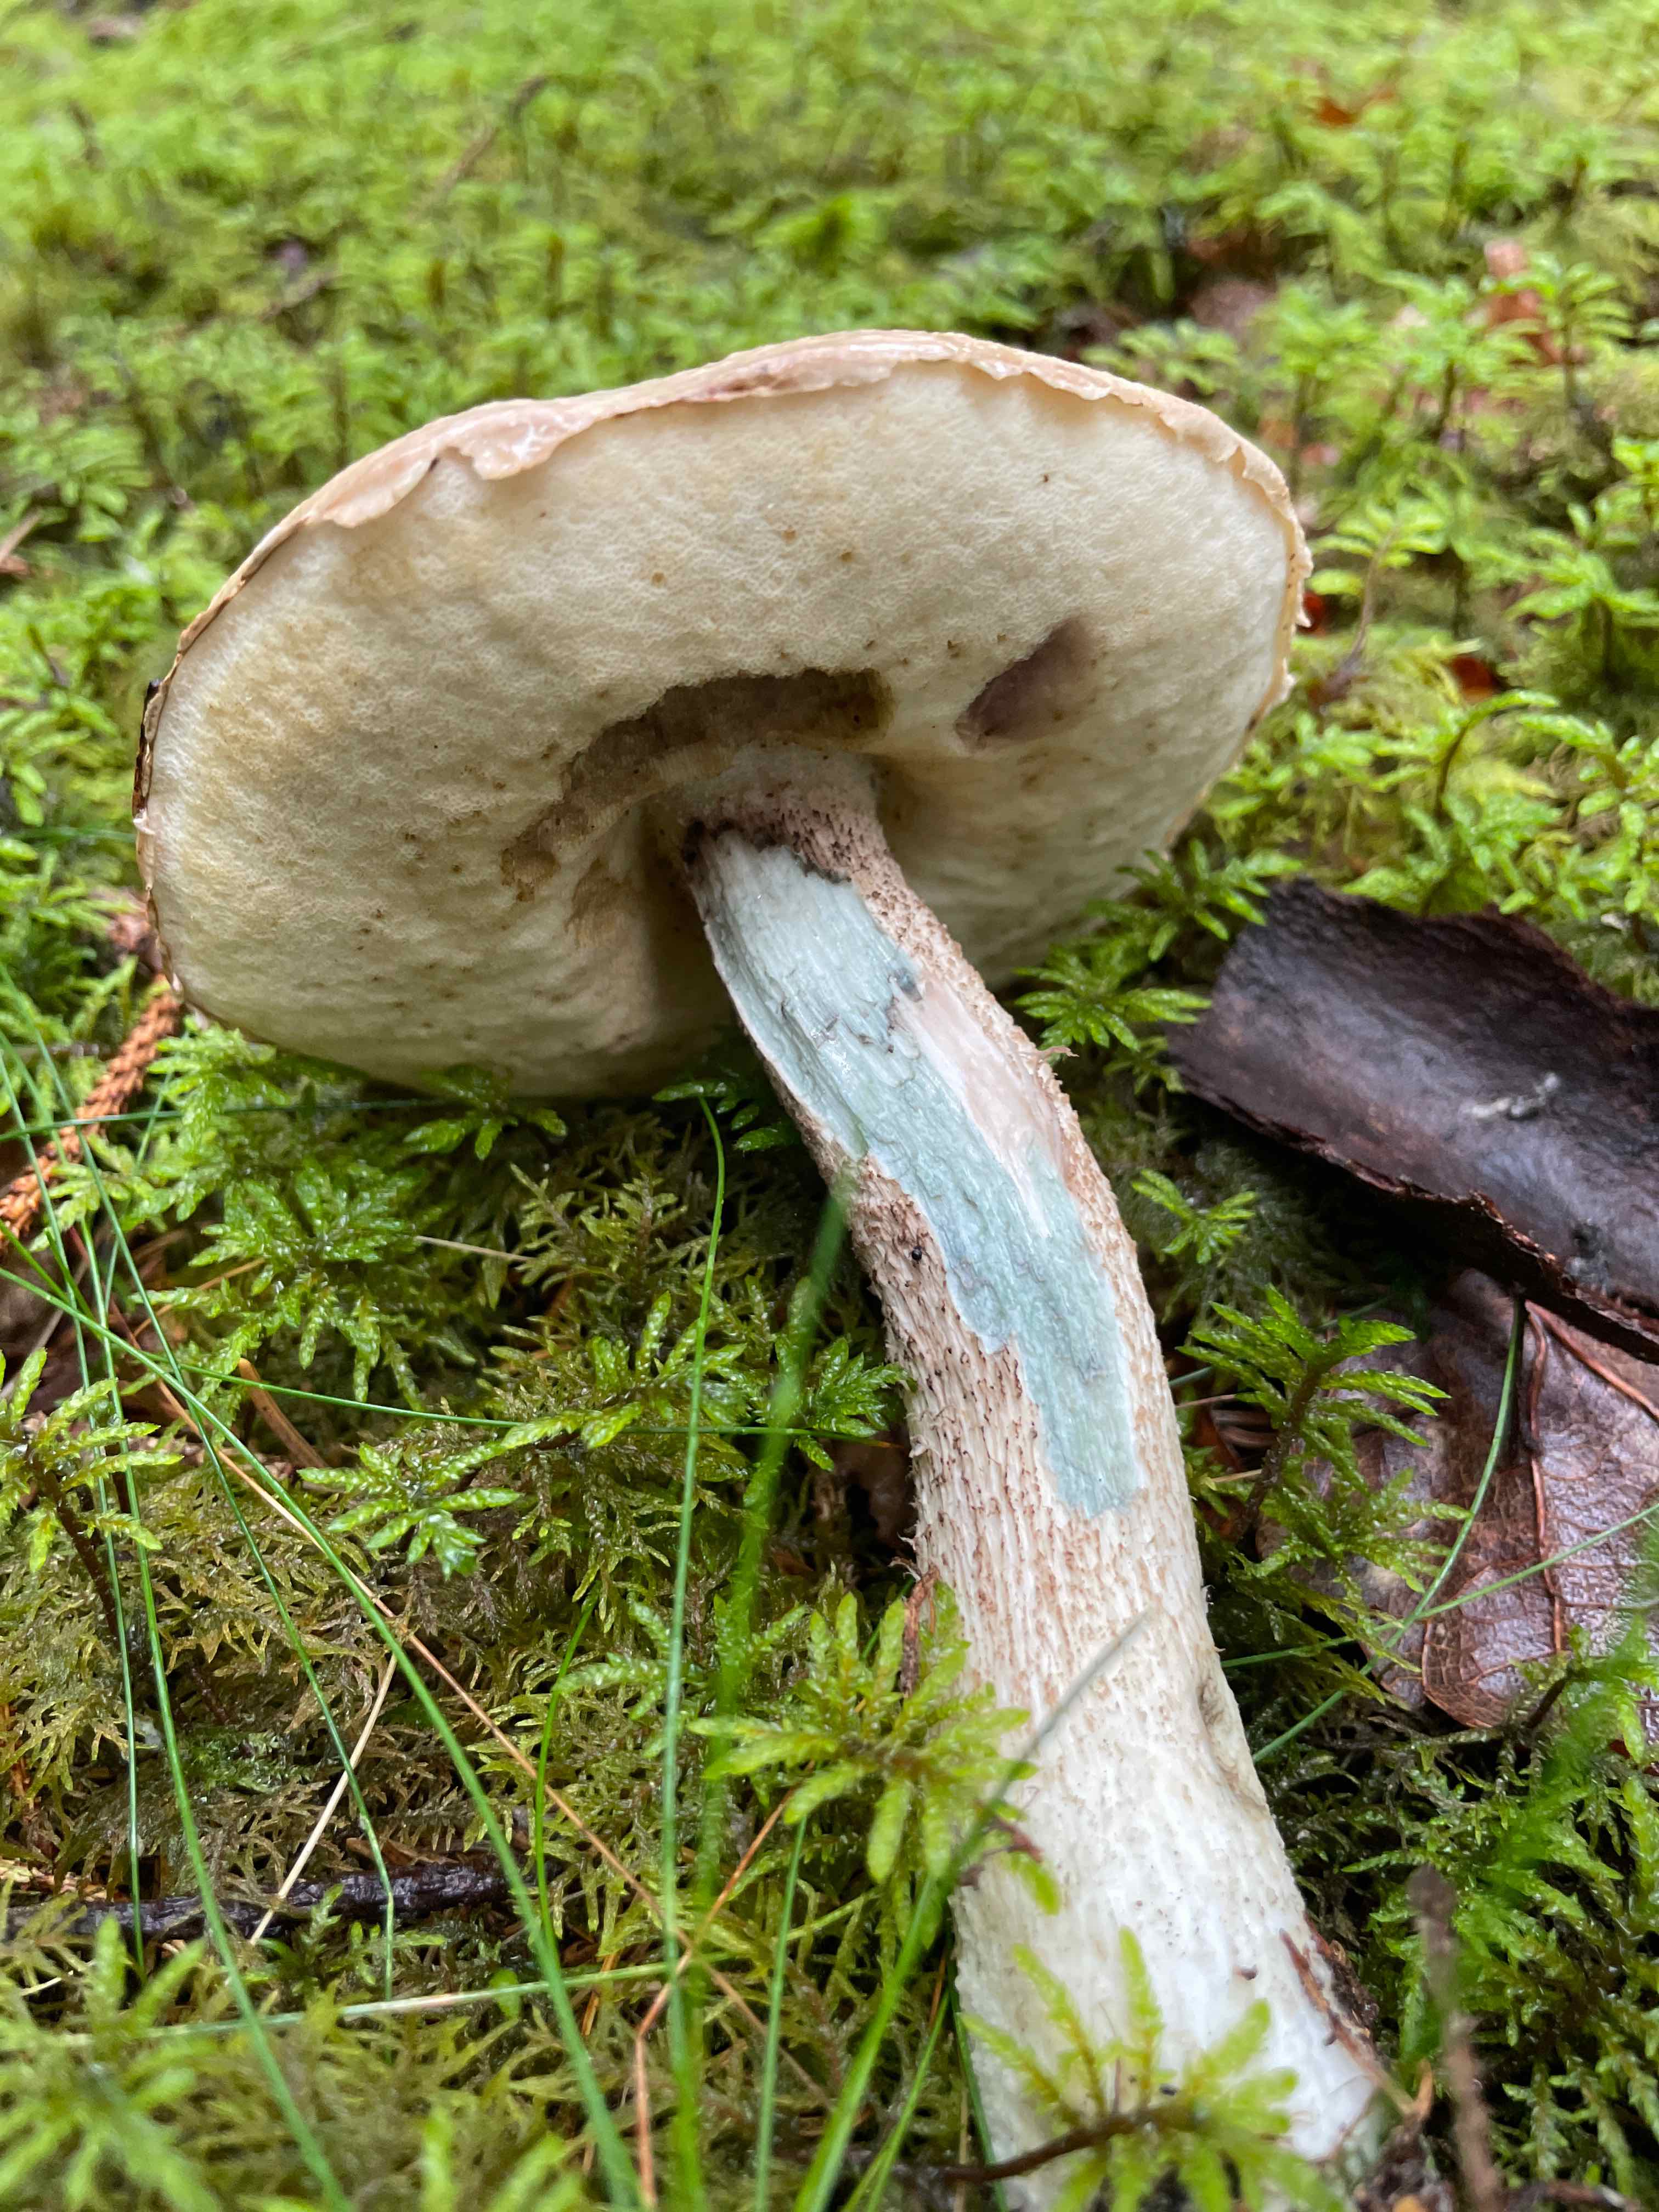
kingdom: Fungi
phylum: Basidiomycota
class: Agaricomycetes
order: Boletales
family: Boletaceae
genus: Leccinum
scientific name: Leccinum
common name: skælrørhat
